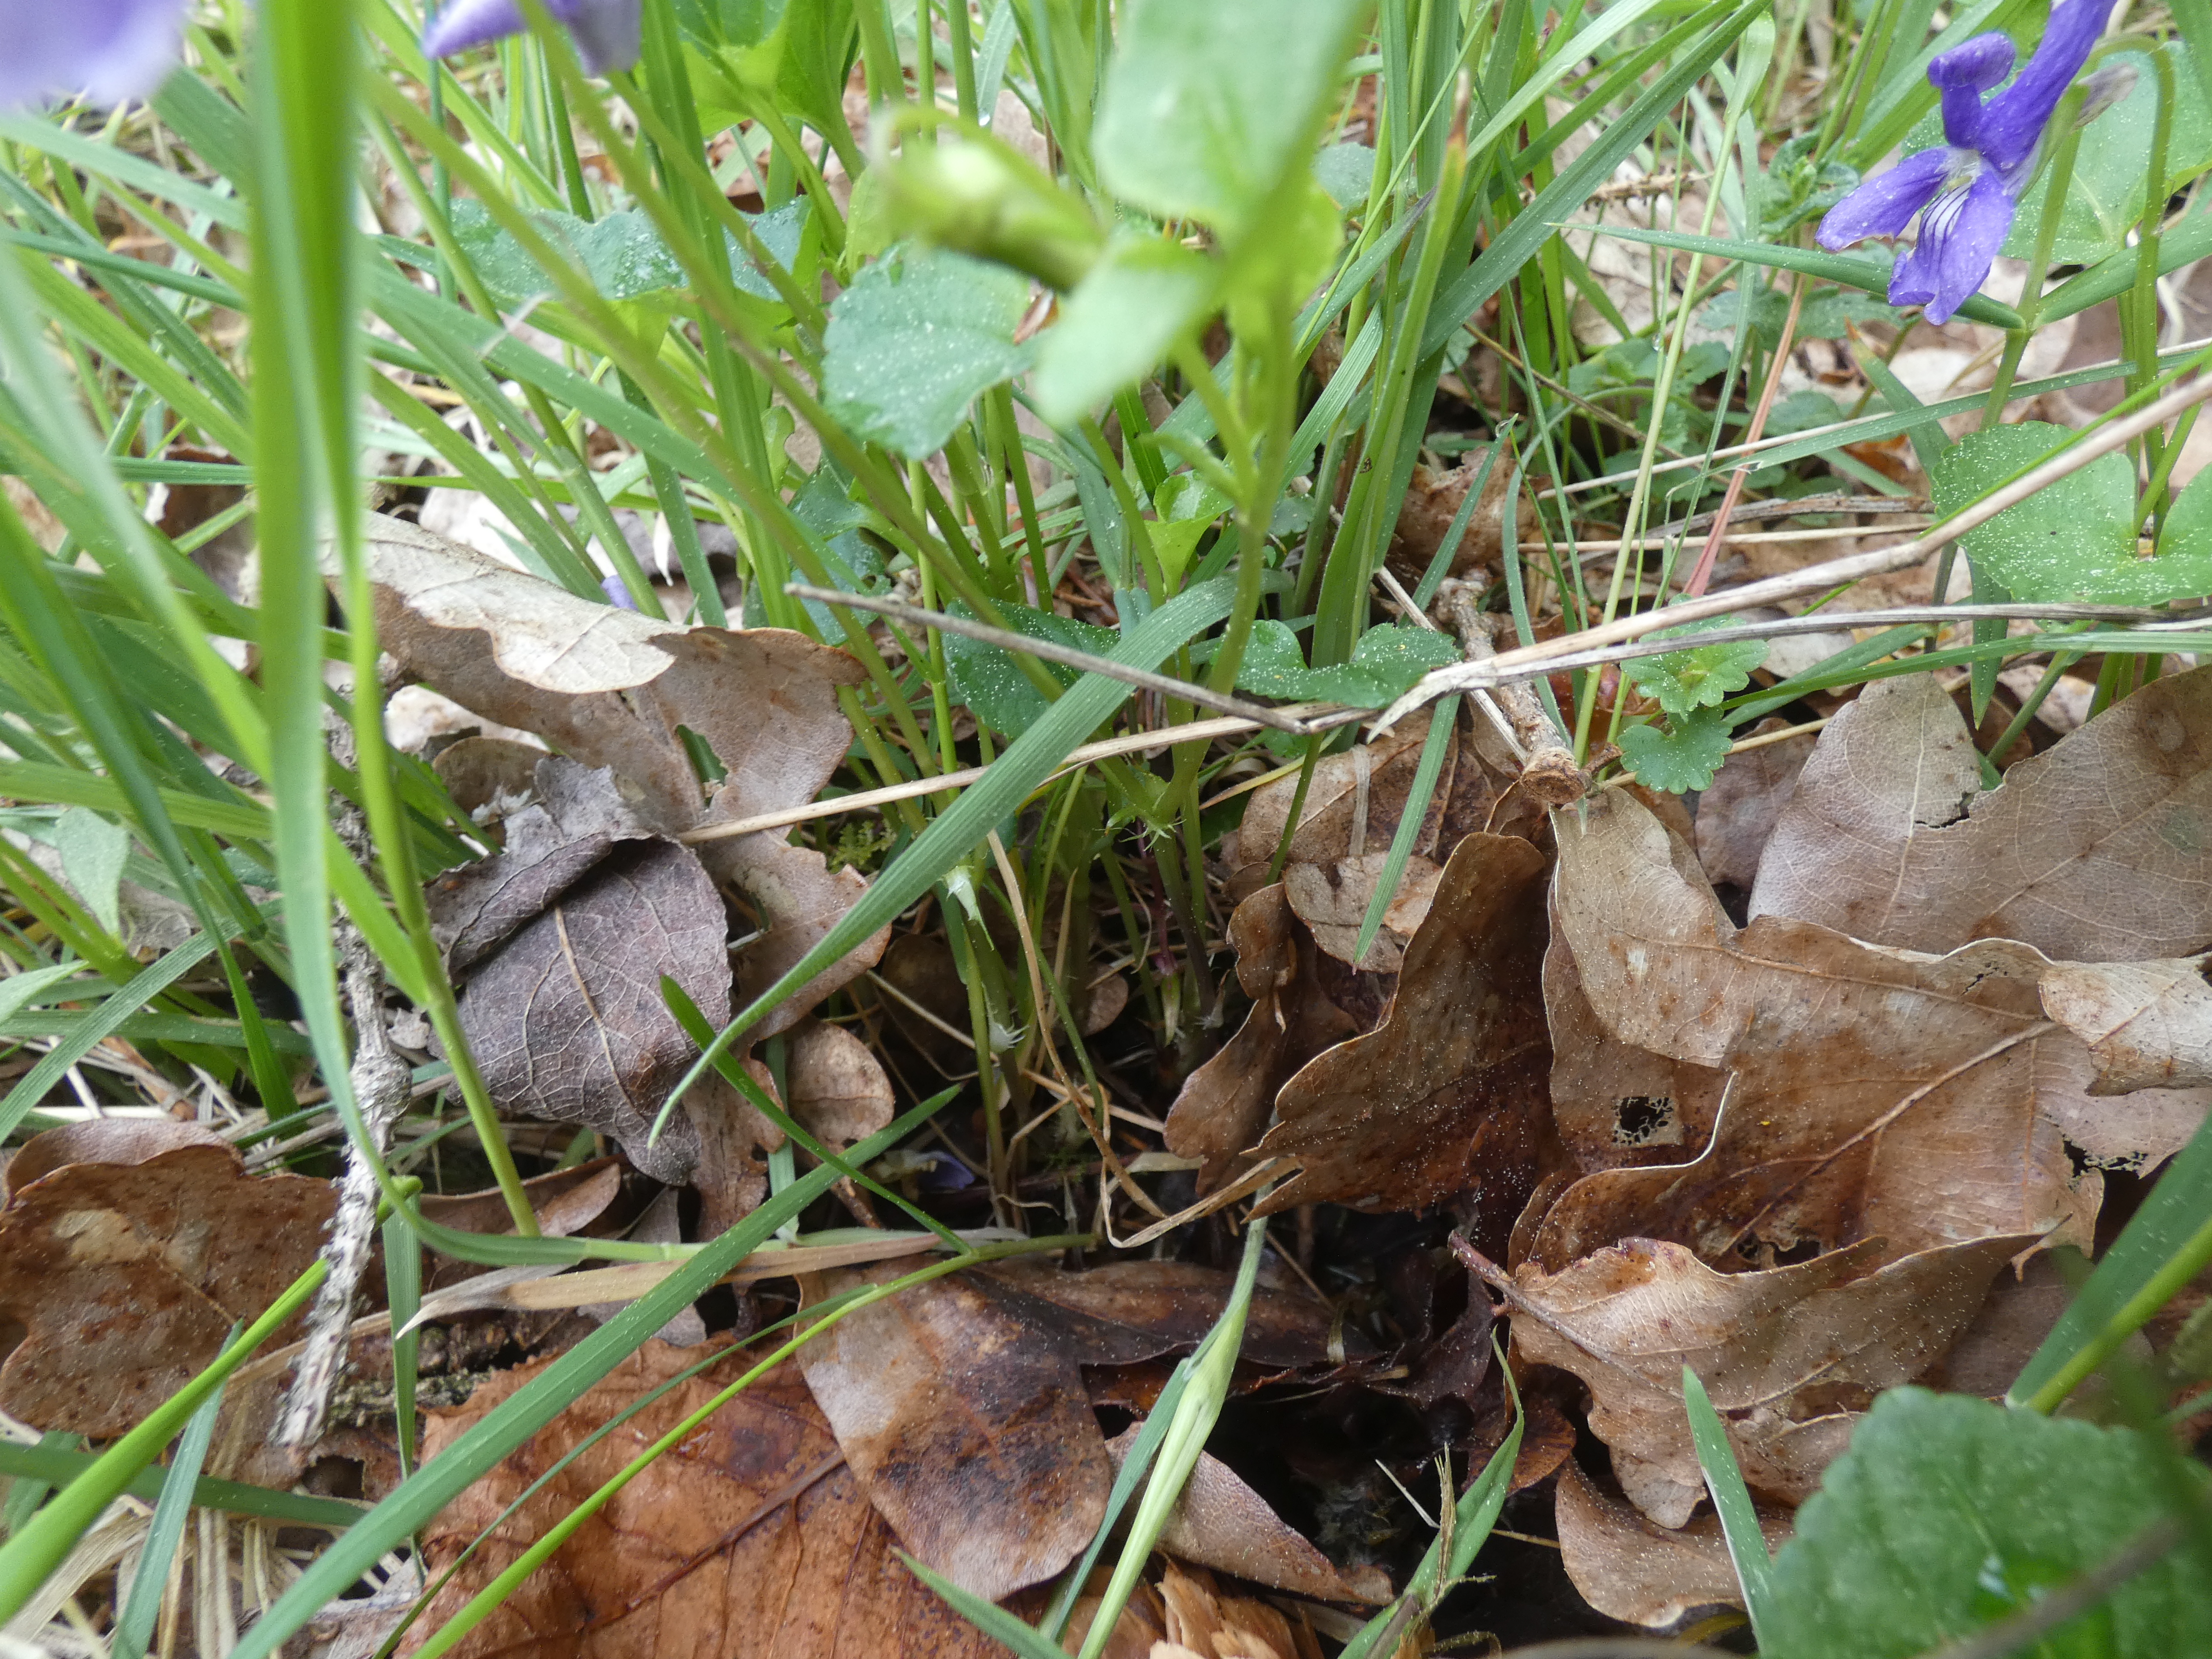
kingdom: Plantae
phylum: Tracheophyta
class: Magnoliopsida
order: Malpighiales
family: Violaceae
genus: Viola
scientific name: Viola riviniana
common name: Krat-viol
